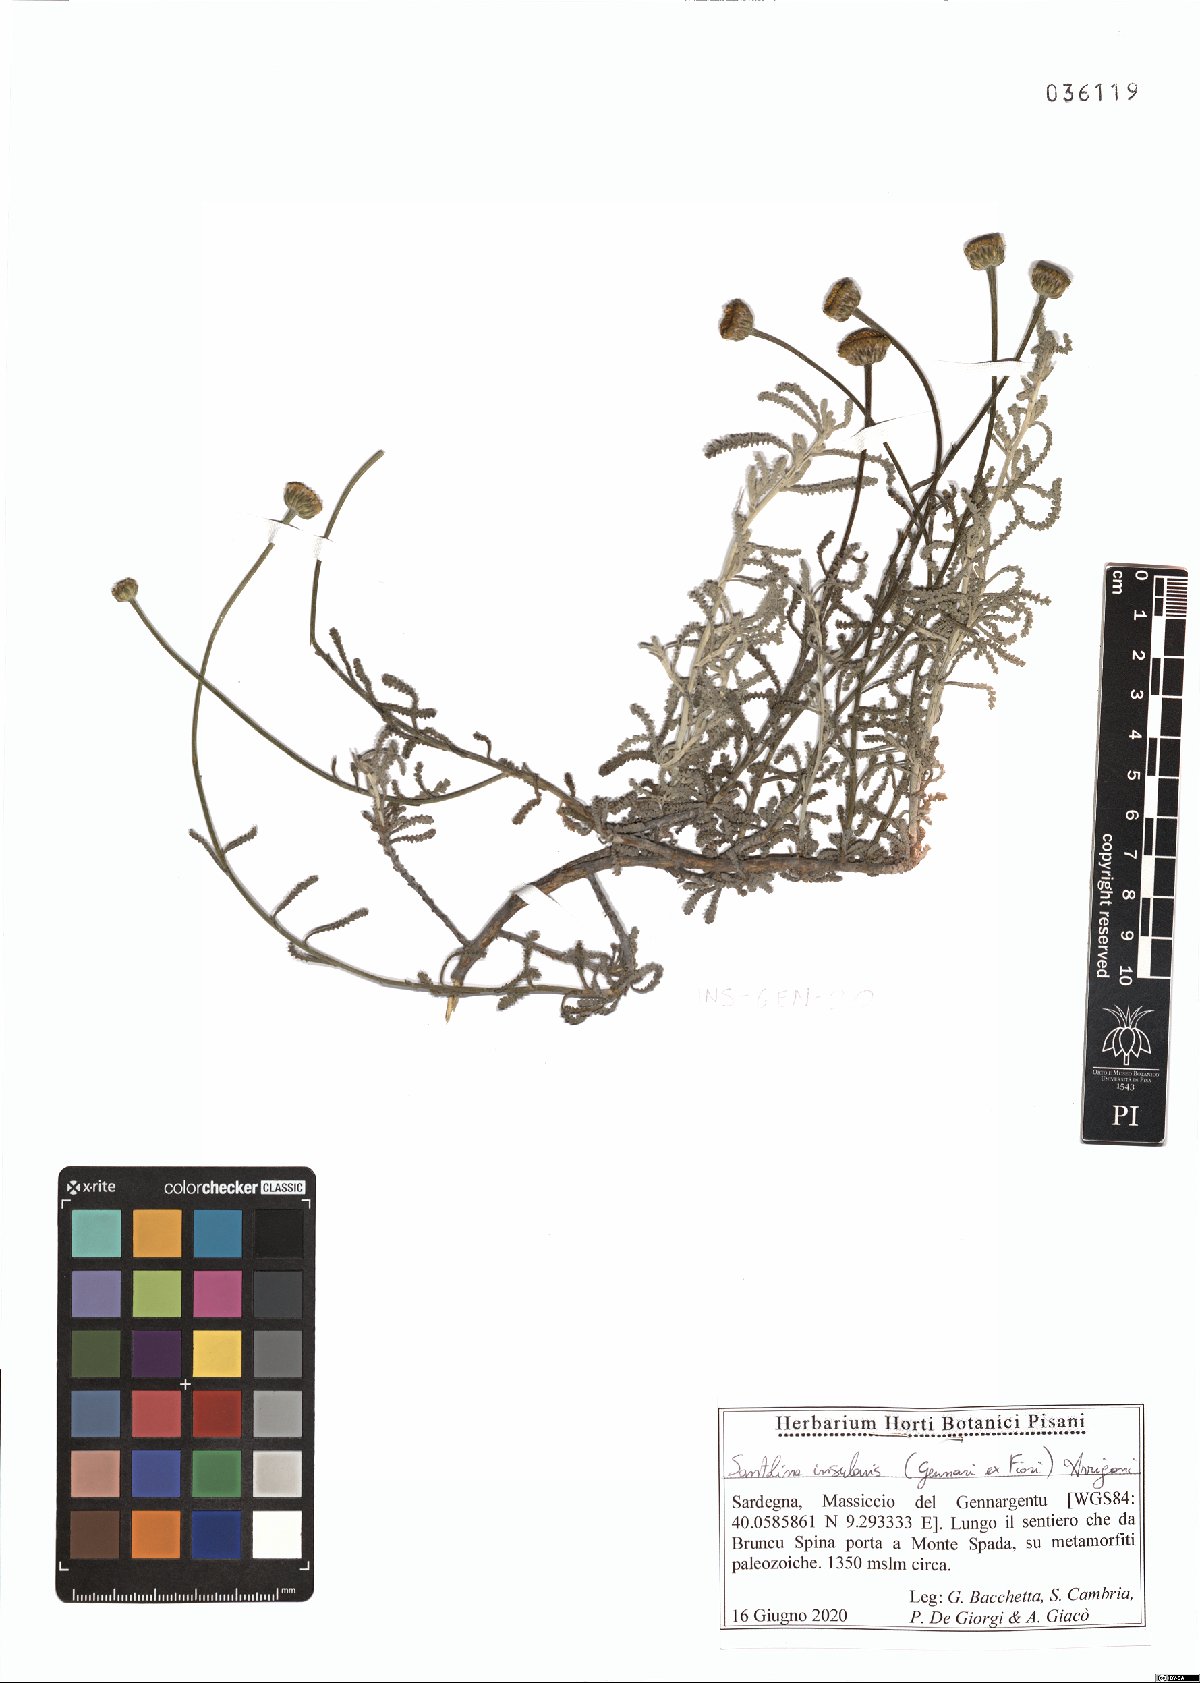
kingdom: Plantae
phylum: Tracheophyta
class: Magnoliopsida
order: Asterales
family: Asteraceae
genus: Santolina
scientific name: Santolina insularis
